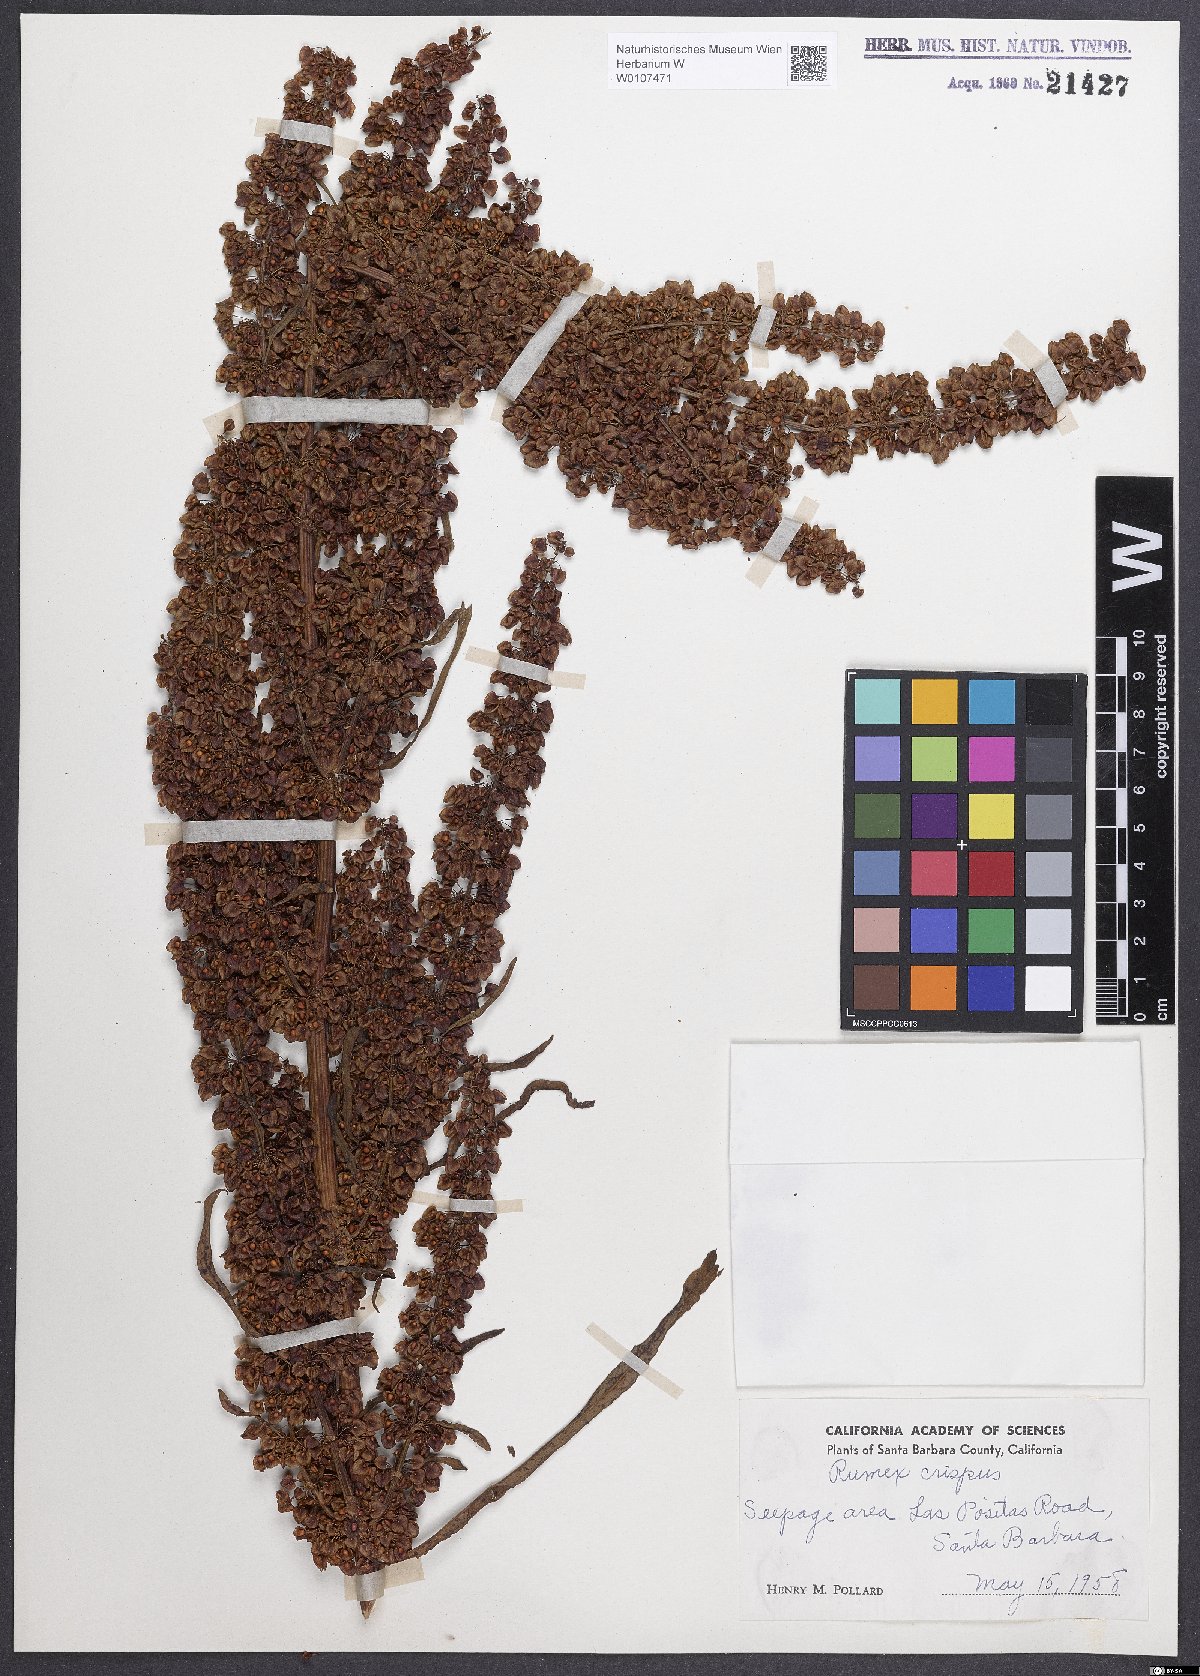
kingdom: Plantae
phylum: Tracheophyta
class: Magnoliopsida
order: Caryophyllales
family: Polygonaceae
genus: Rumex
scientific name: Rumex crispus
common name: Curled dock
